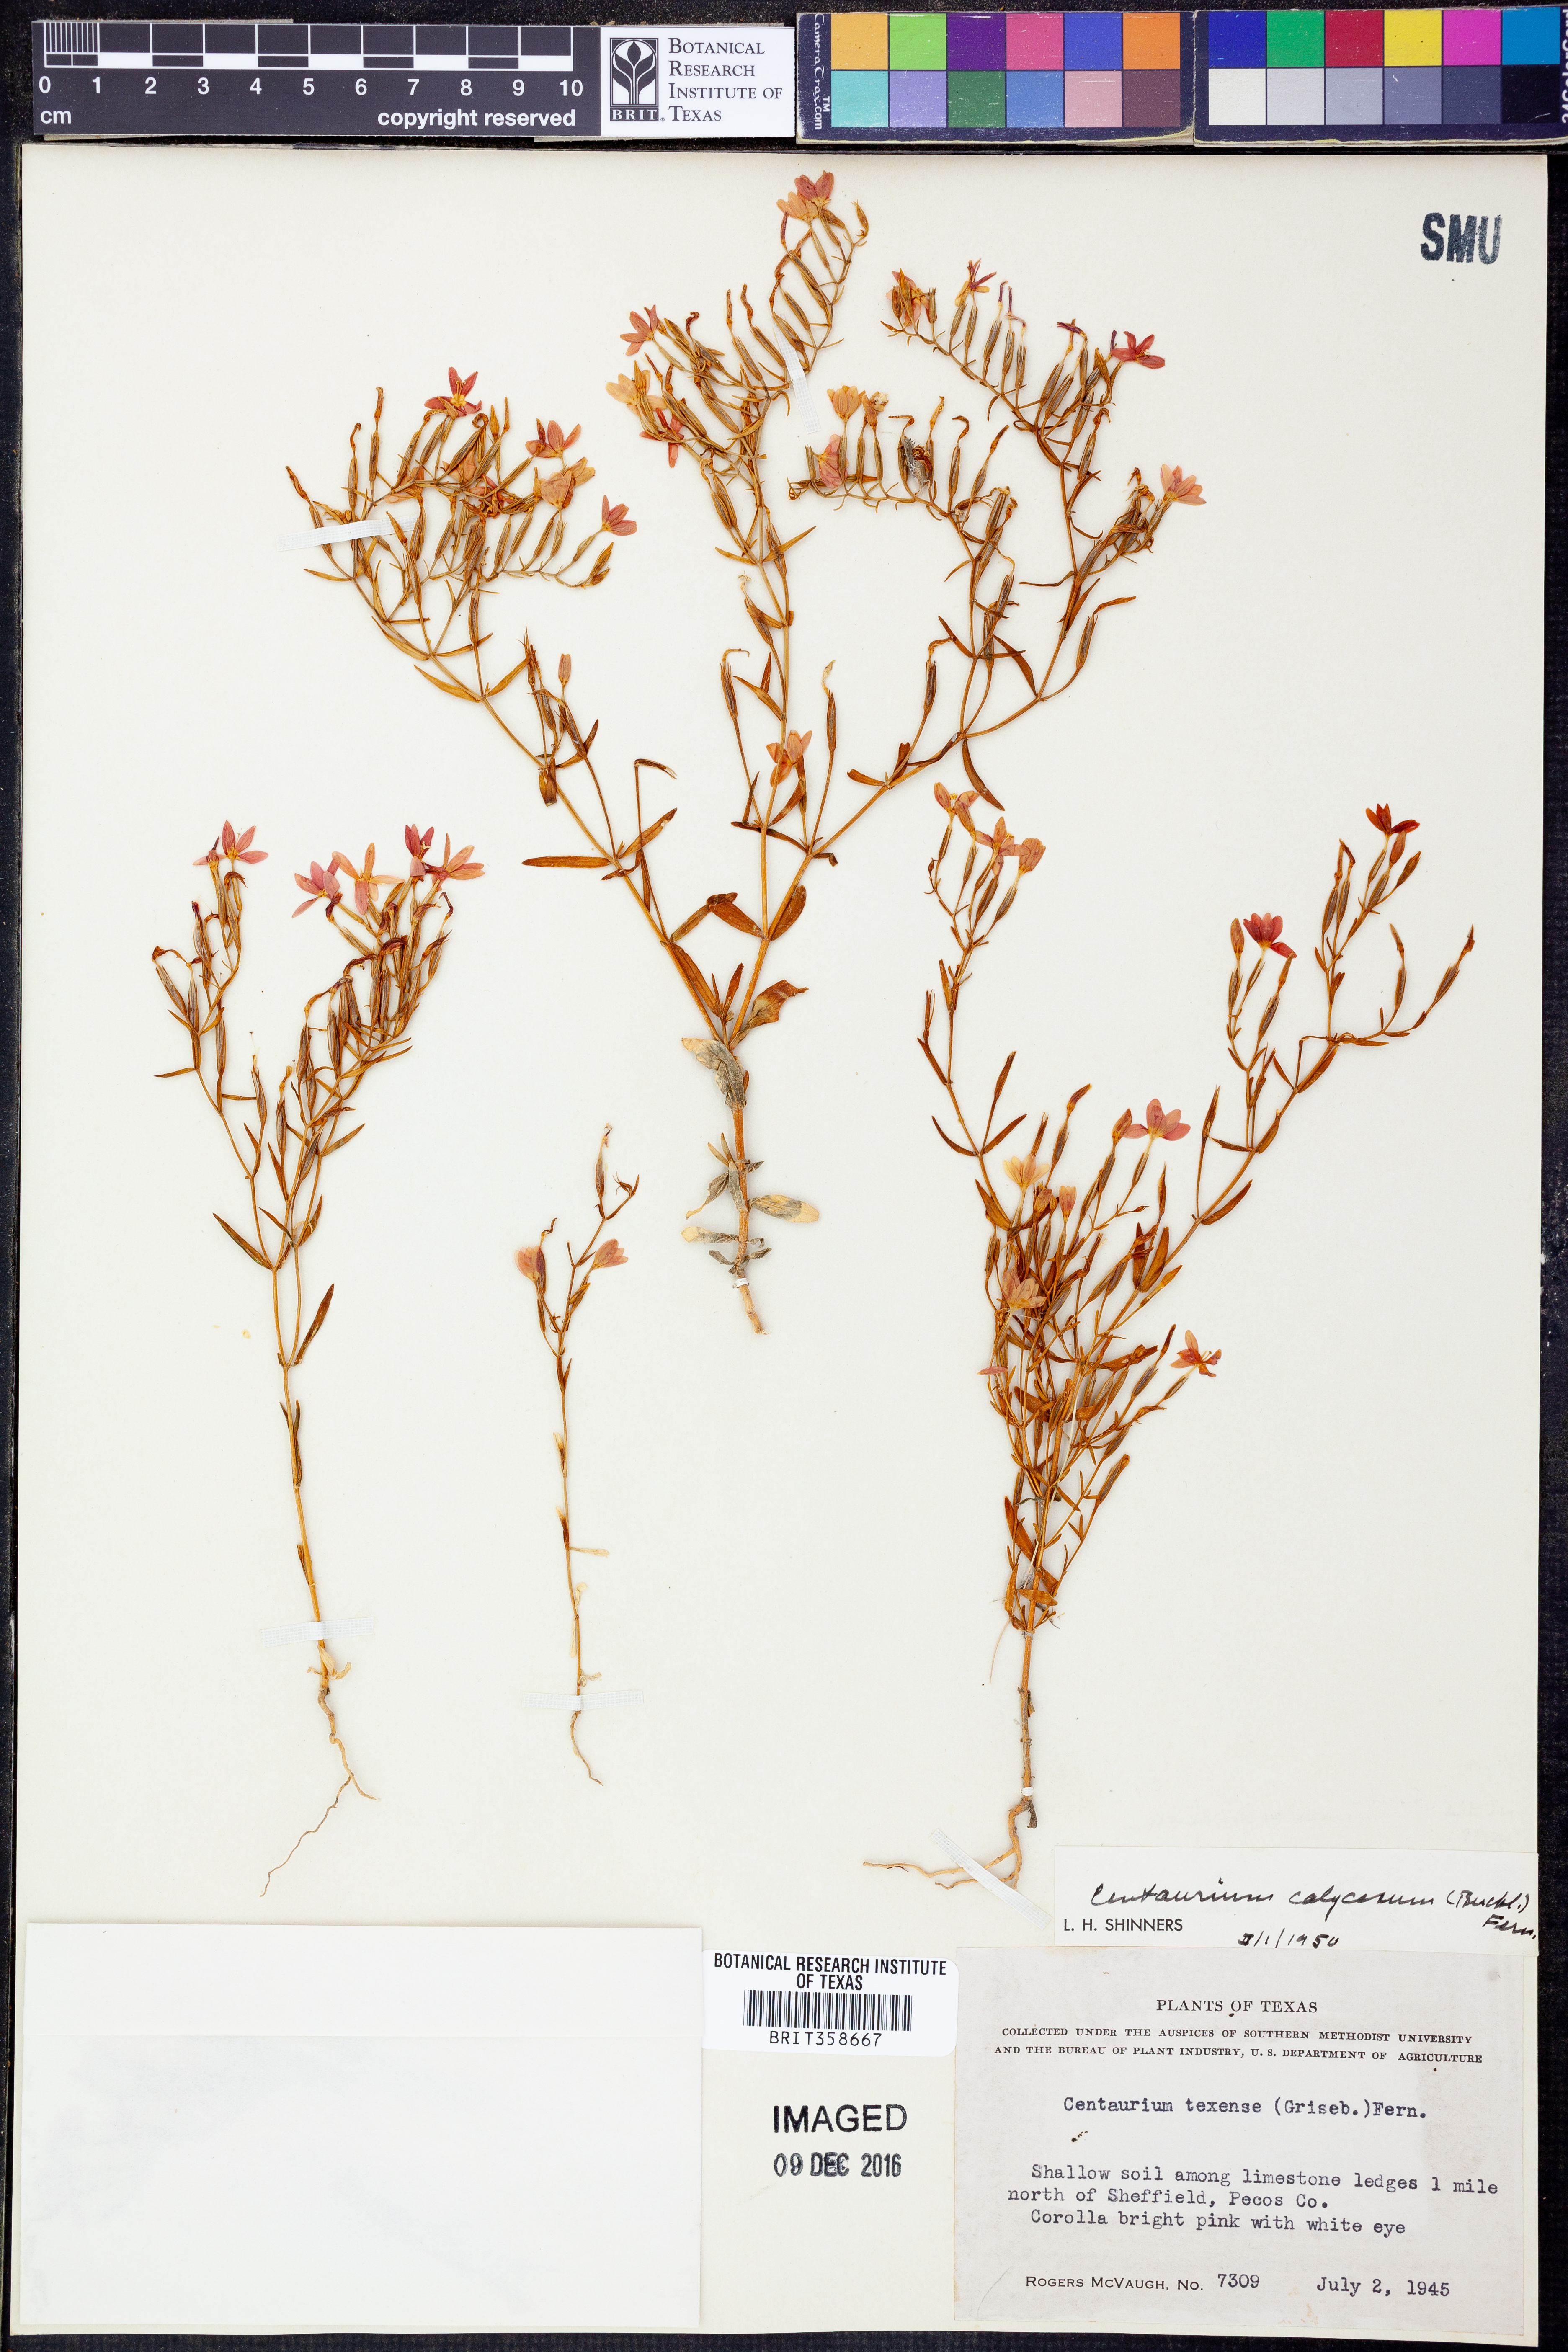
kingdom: Plantae
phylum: Tracheophyta
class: Magnoliopsida
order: Gentianales
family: Gentianaceae
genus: Zeltnera
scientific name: Zeltnera calycosa
